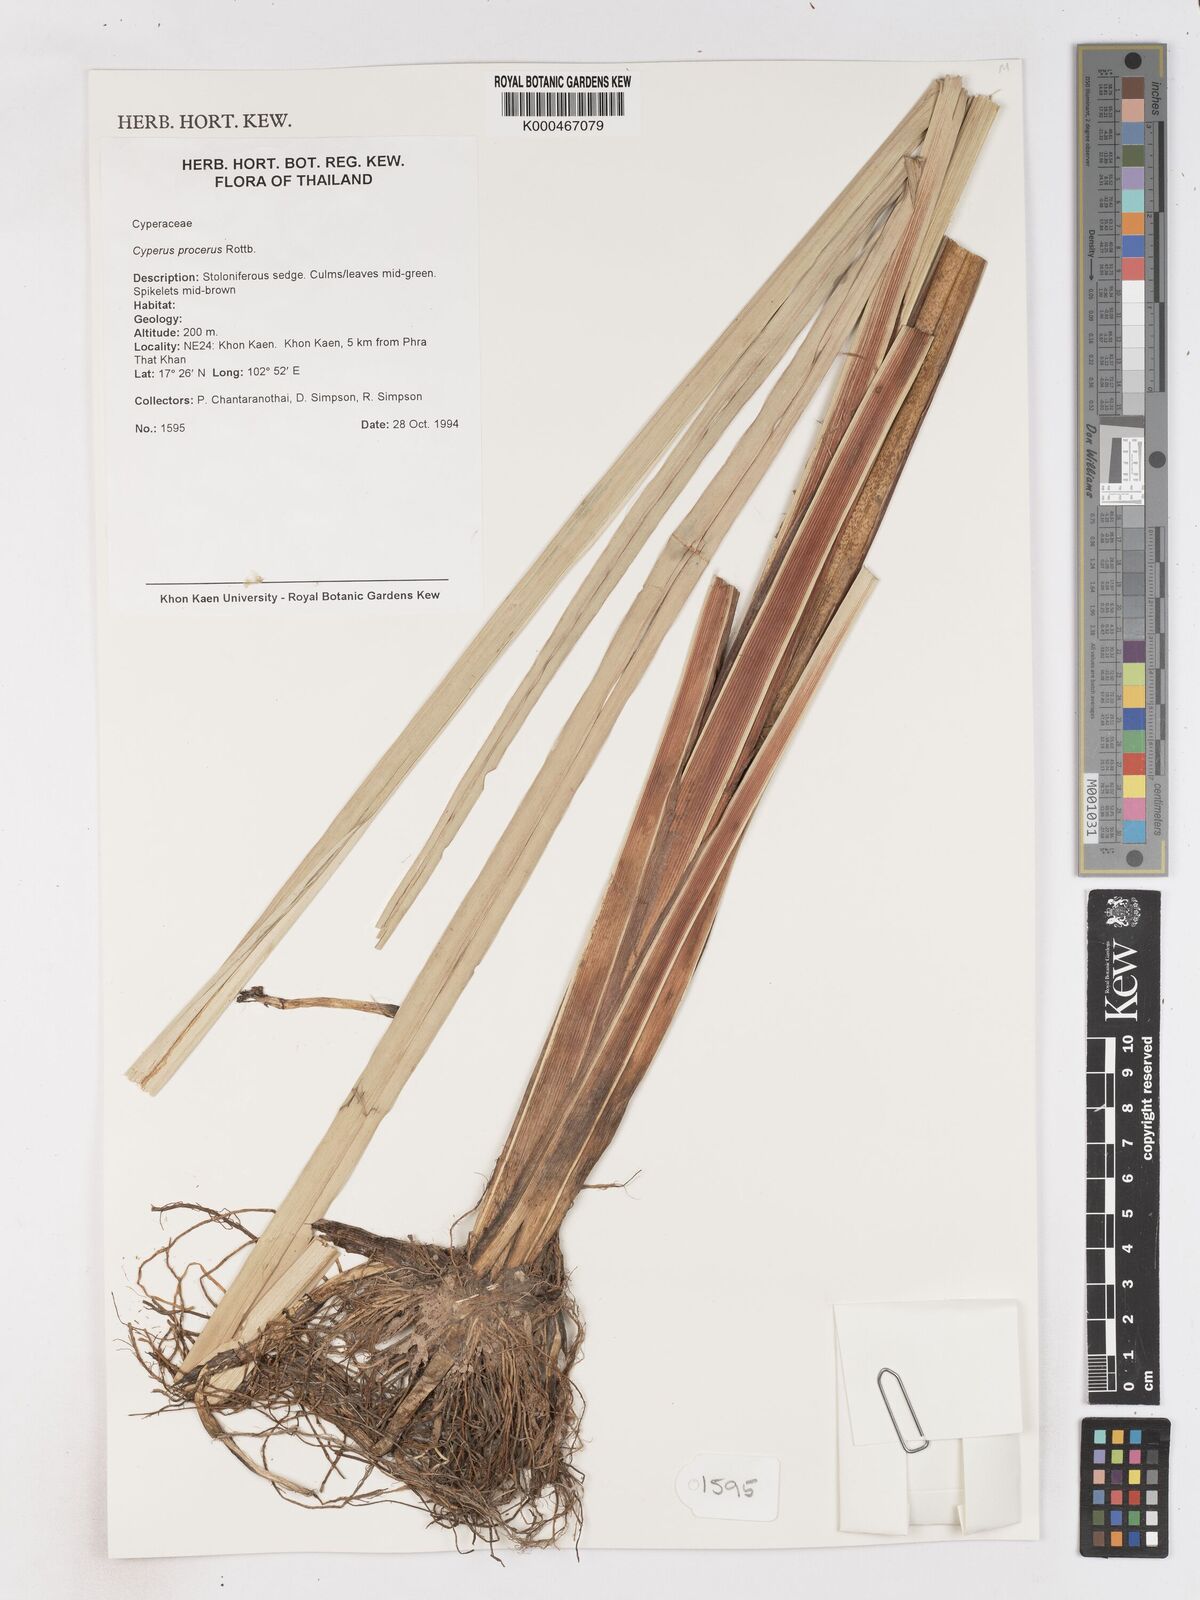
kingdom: Plantae
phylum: Tracheophyta
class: Liliopsida
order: Poales
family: Cyperaceae
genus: Cyperus
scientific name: Cyperus procerus
